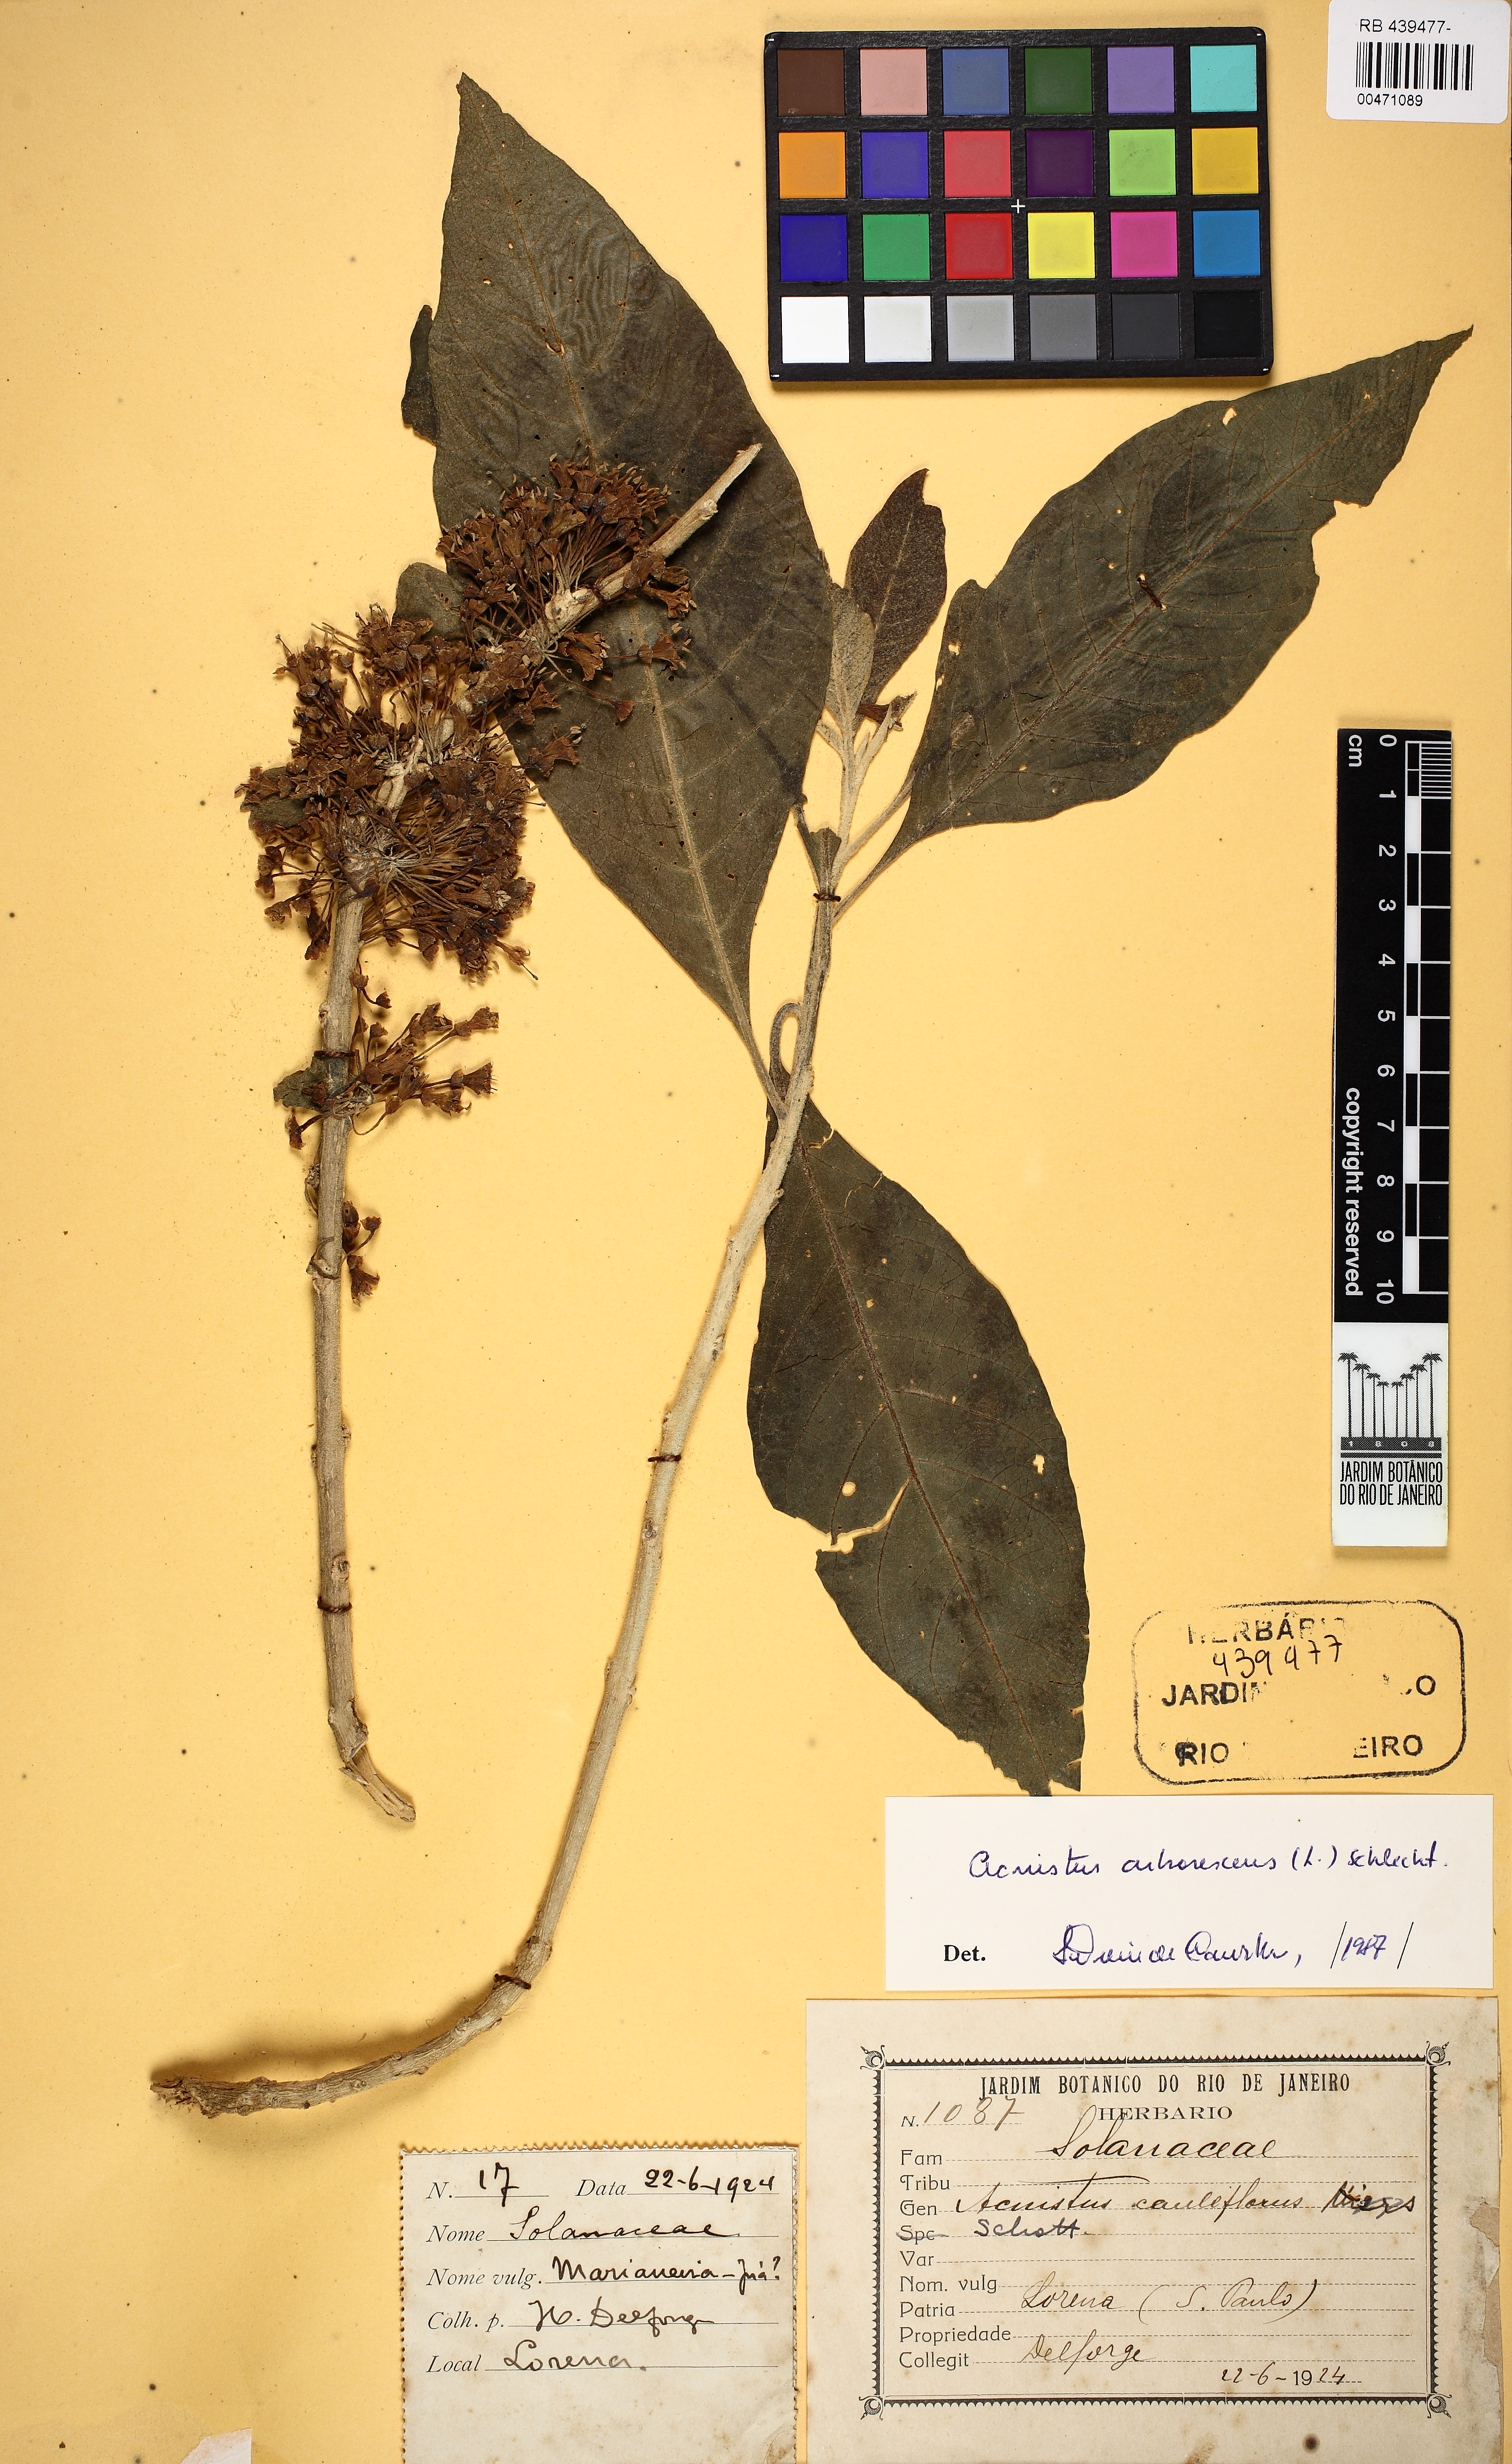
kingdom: Plantae
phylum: Tracheophyta
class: Magnoliopsida
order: Solanales
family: Solanaceae
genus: Iochroma
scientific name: Iochroma arborescens
